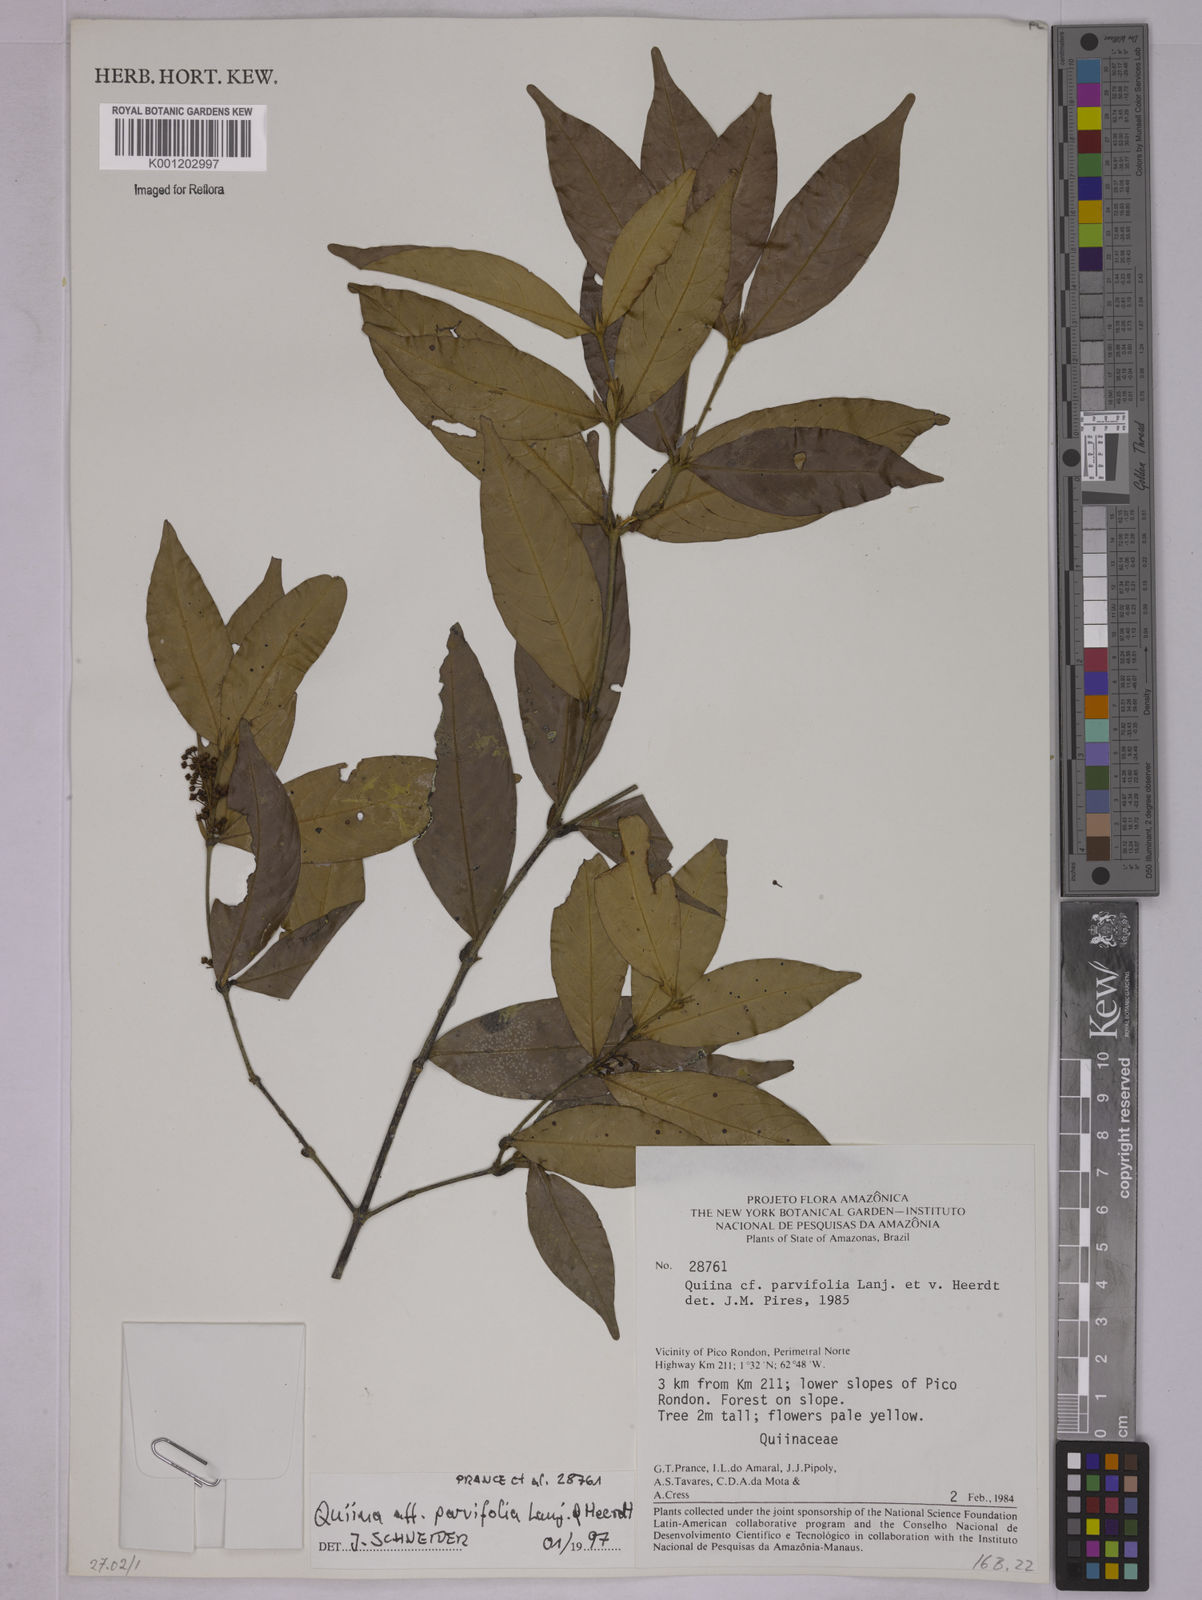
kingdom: Plantae
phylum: Tracheophyta
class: Magnoliopsida
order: Malpighiales
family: Quiinaceae
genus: Quiina
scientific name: Quiina parvifolia
